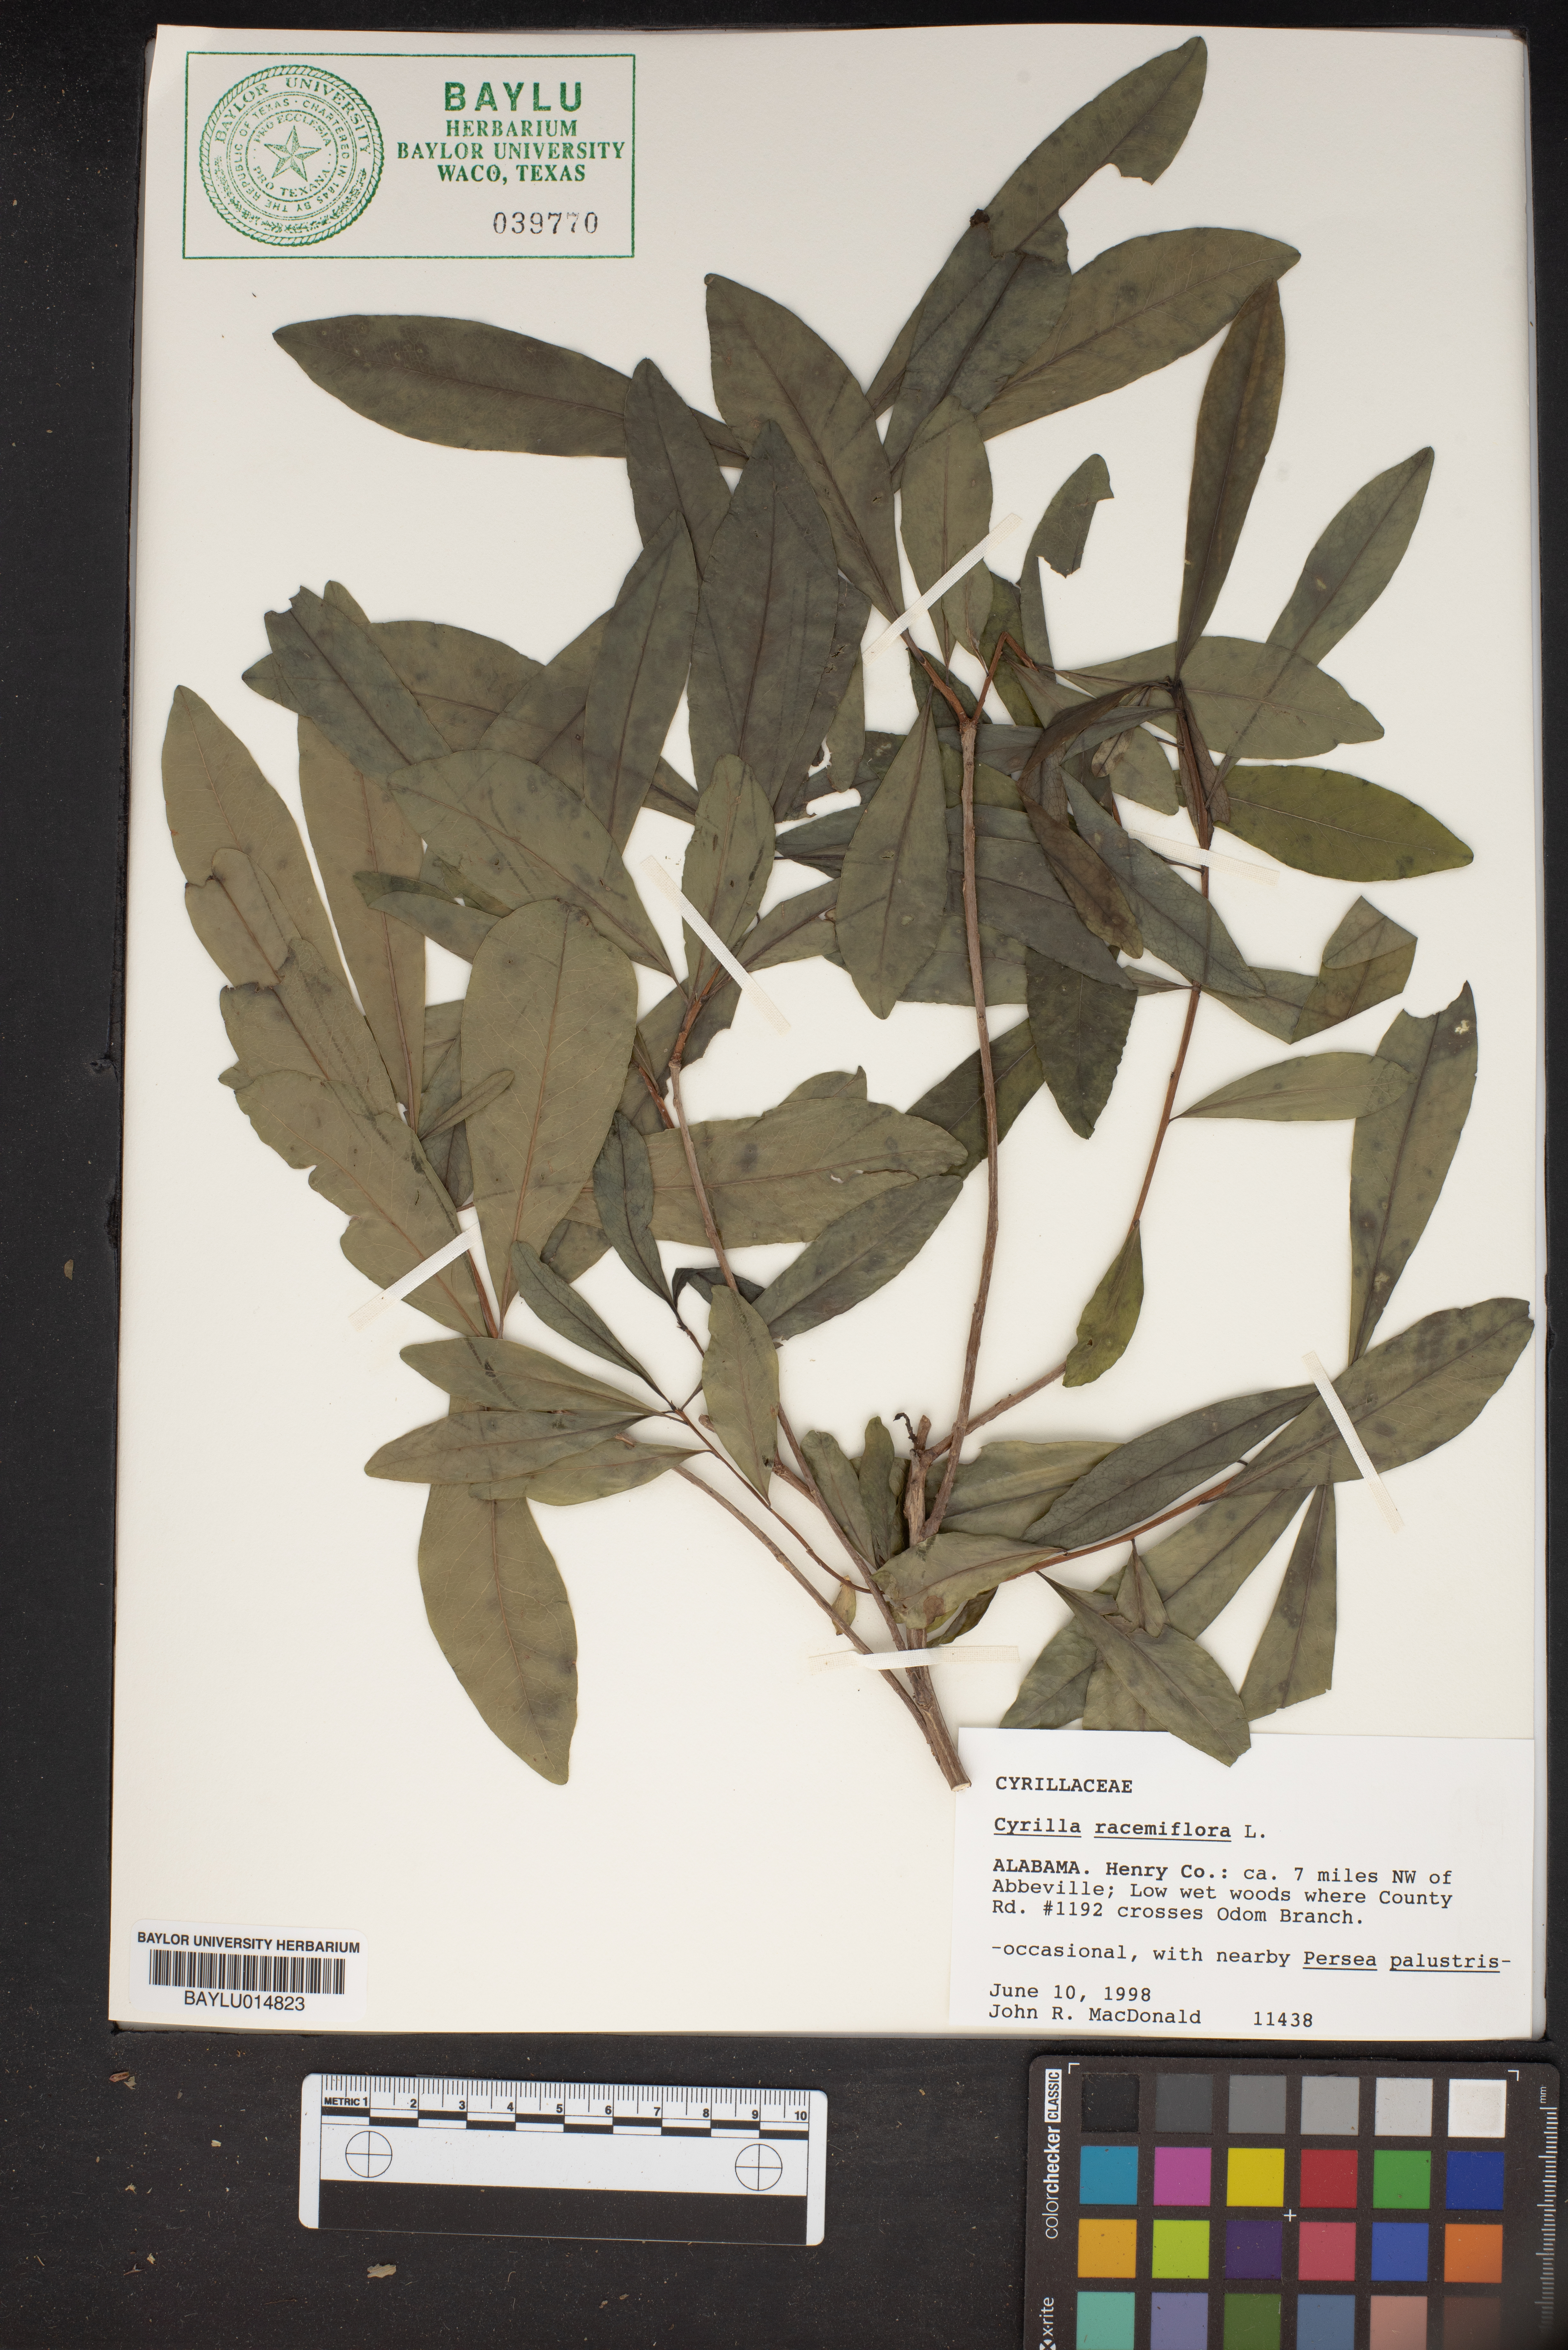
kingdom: Plantae
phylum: Tracheophyta
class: Magnoliopsida
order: Ericales
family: Cyrillaceae
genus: Cyrilla
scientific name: Cyrilla racemiflora
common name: Black titi
